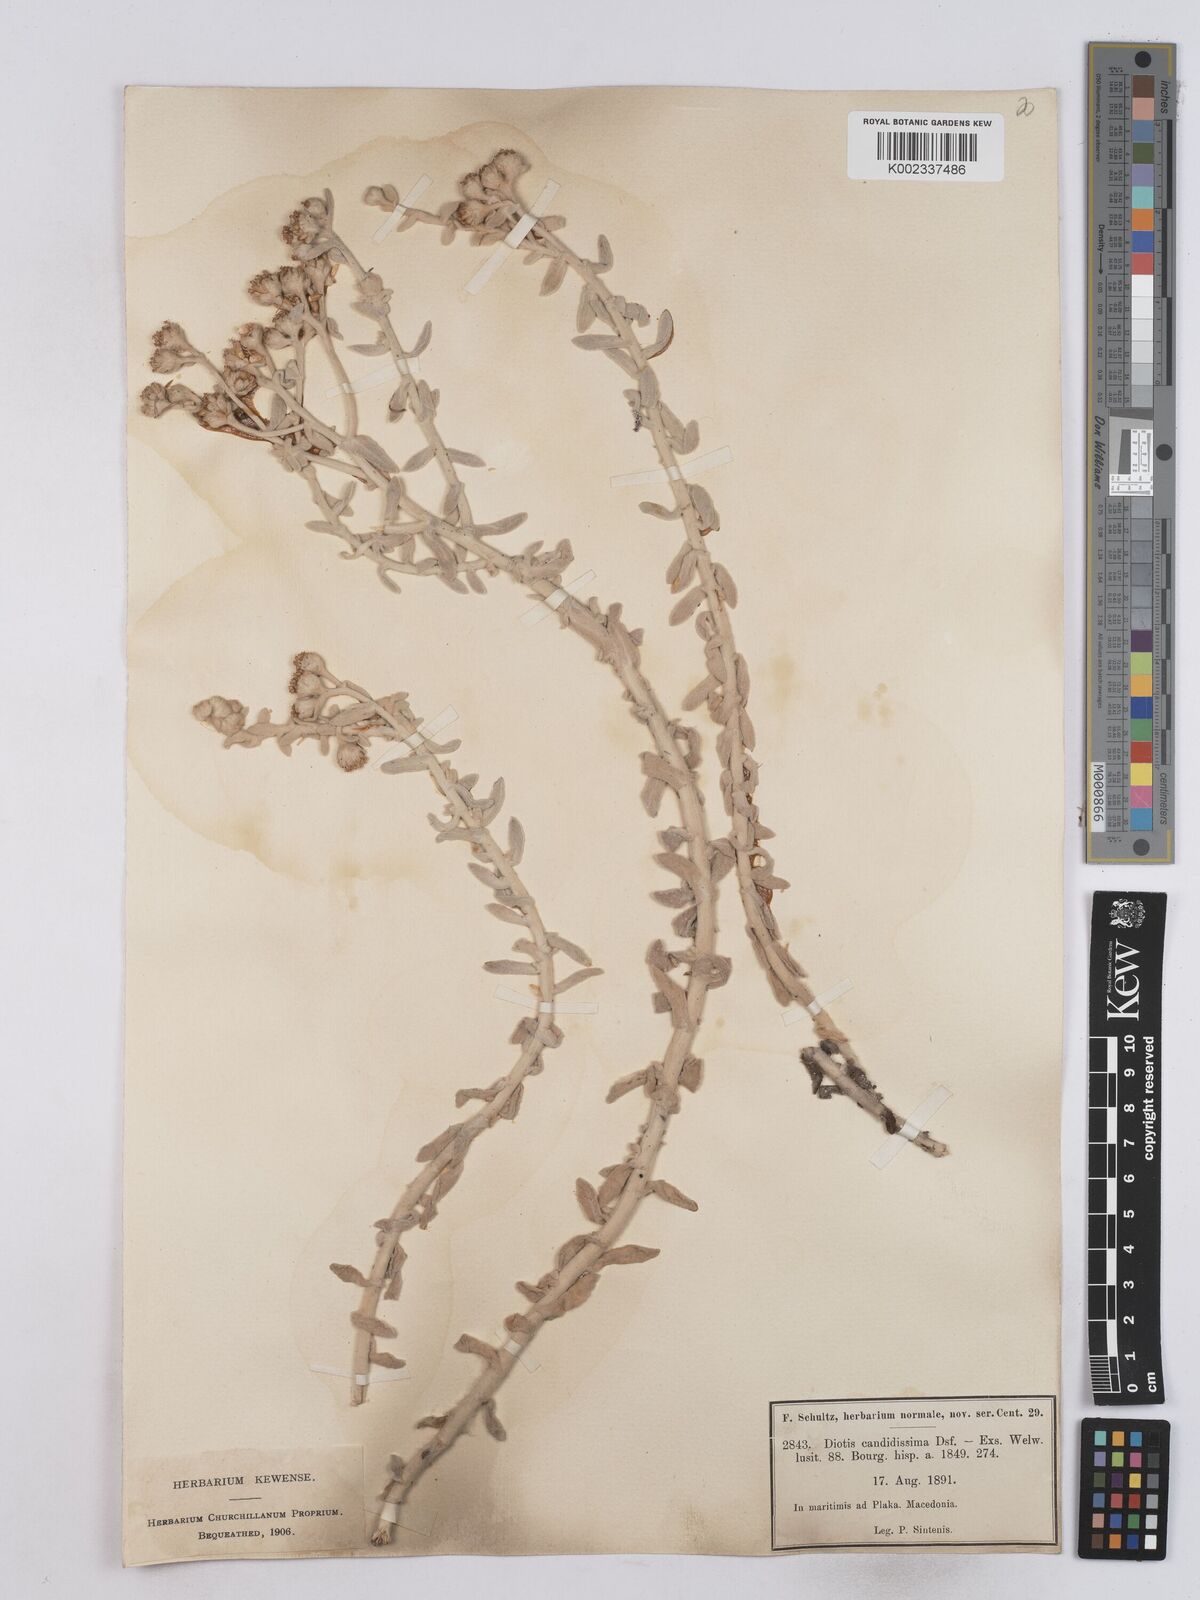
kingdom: Plantae
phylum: Tracheophyta
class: Magnoliopsida
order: Asterales
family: Asteraceae
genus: Achillea
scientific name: Achillea maritima
